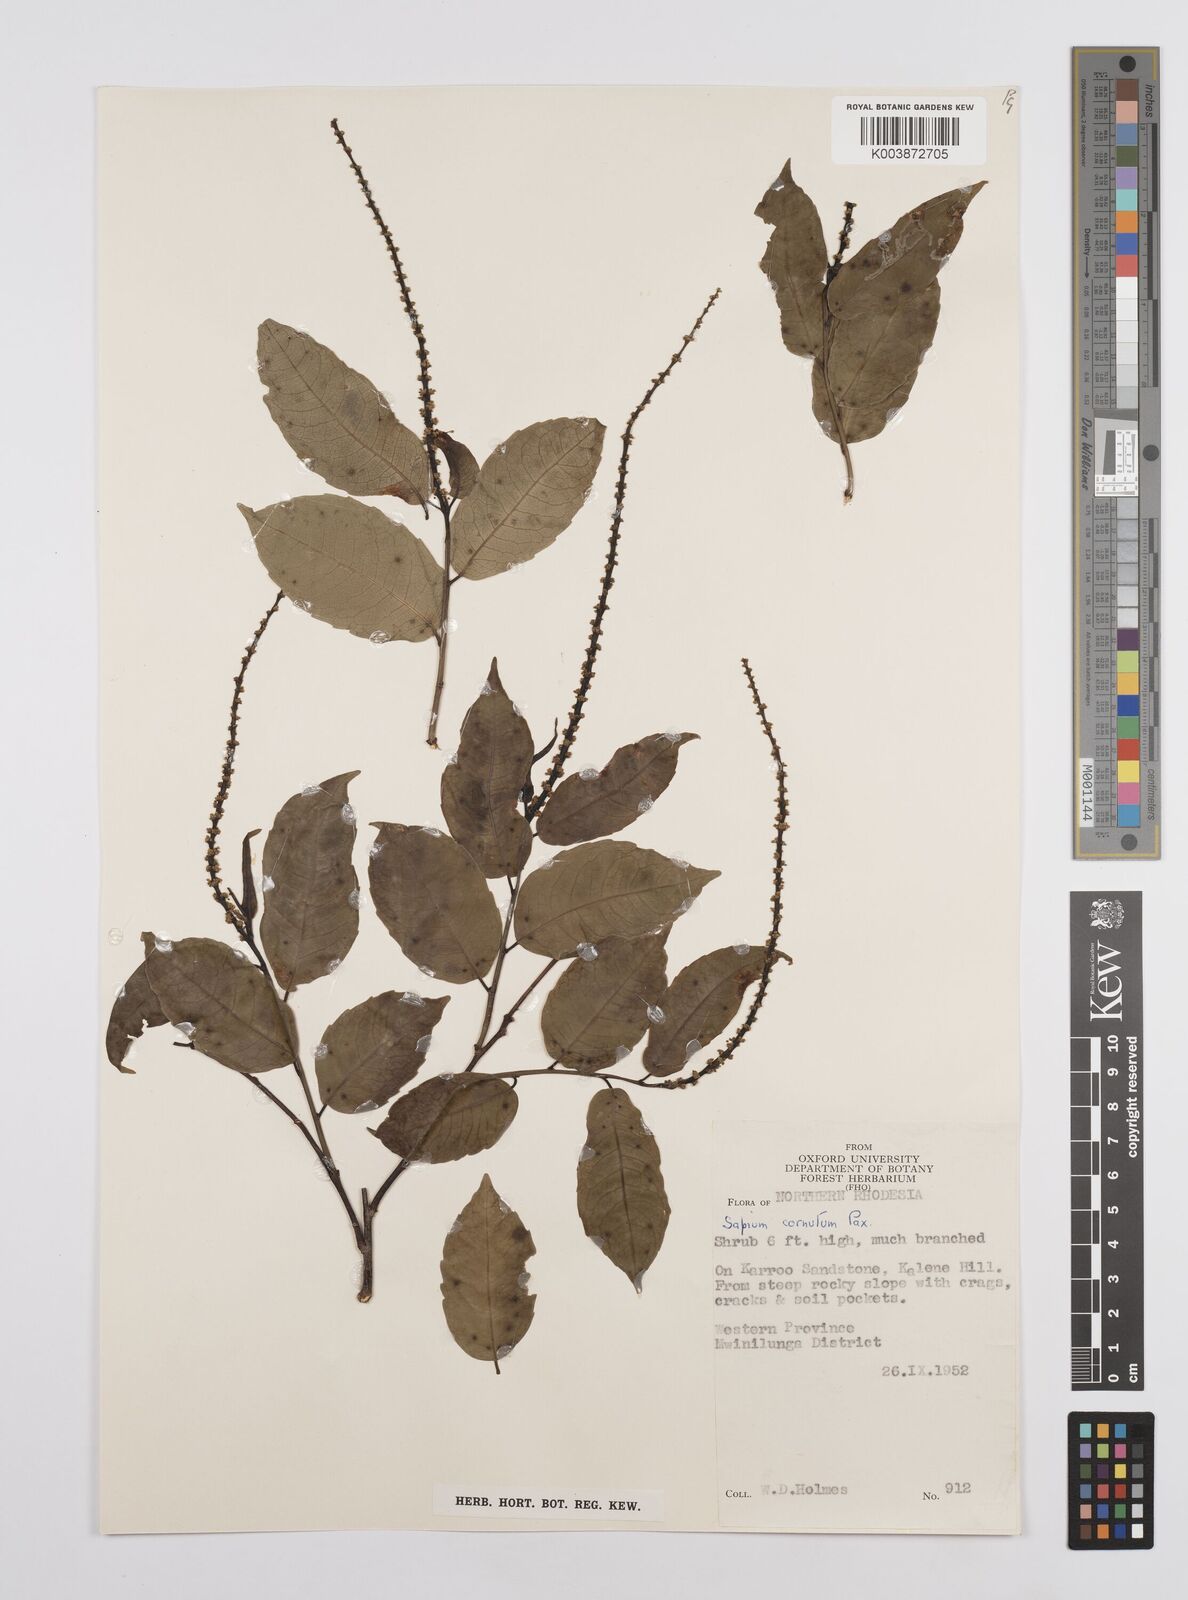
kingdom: Plantae
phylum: Tracheophyta
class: Magnoliopsida
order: Malpighiales
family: Euphorbiaceae
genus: Sclerocroton
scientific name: Sclerocroton cornutus
